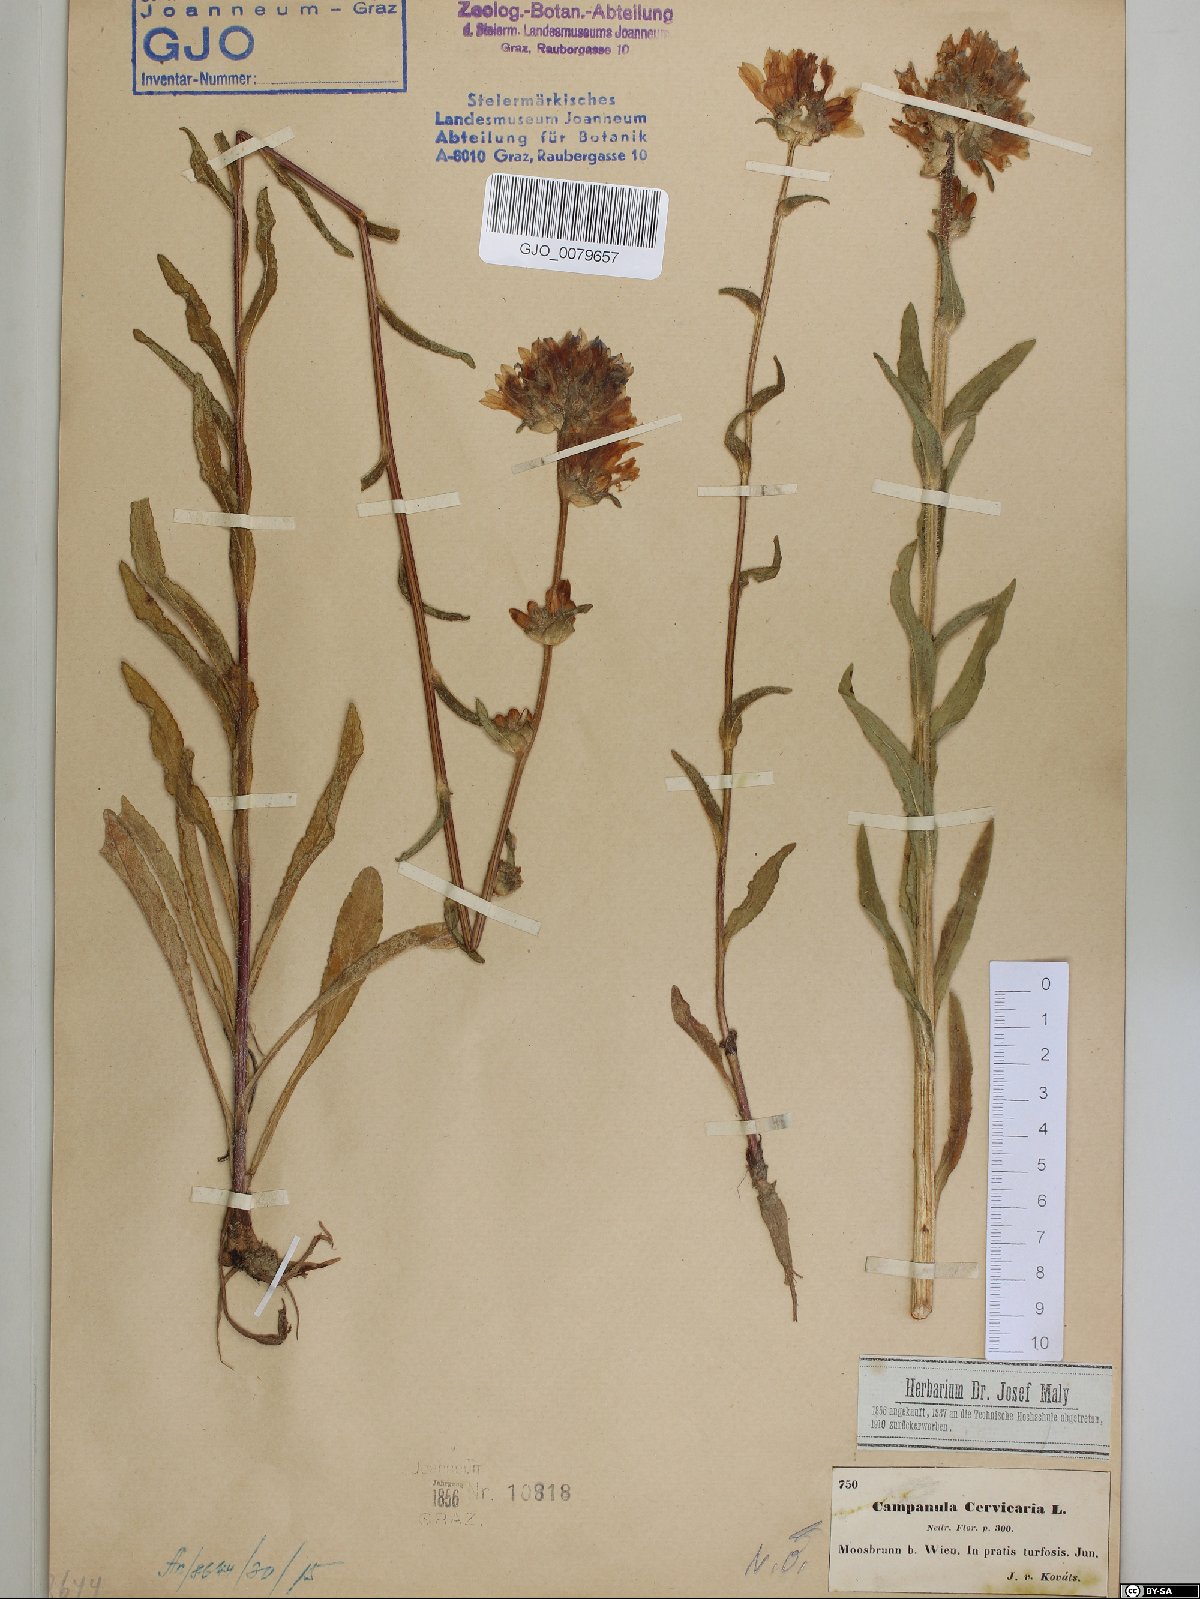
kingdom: Plantae
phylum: Tracheophyta
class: Magnoliopsida
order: Asterales
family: Campanulaceae
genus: Campanula
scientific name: Campanula cervicaria
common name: Bristly bellflower
